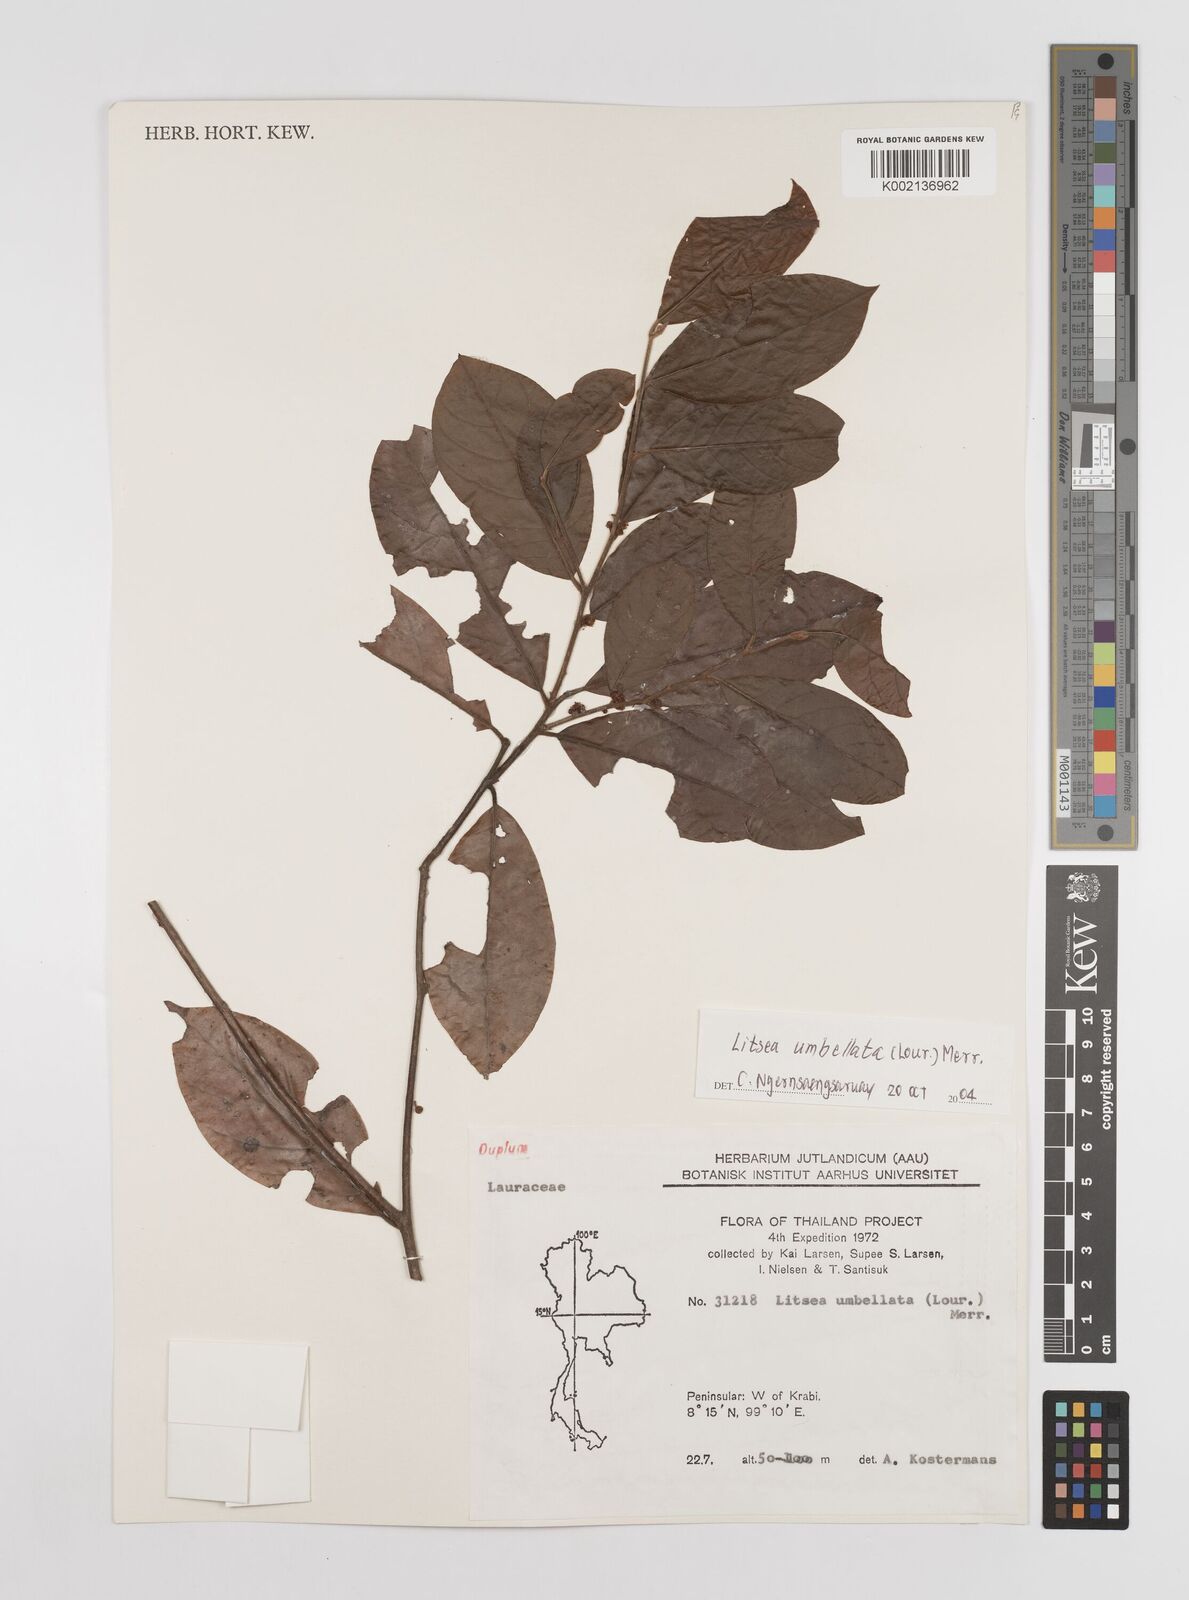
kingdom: Plantae
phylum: Tracheophyta
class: Magnoliopsida
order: Laurales
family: Lauraceae
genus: Litsea
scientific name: Litsea umbellata
